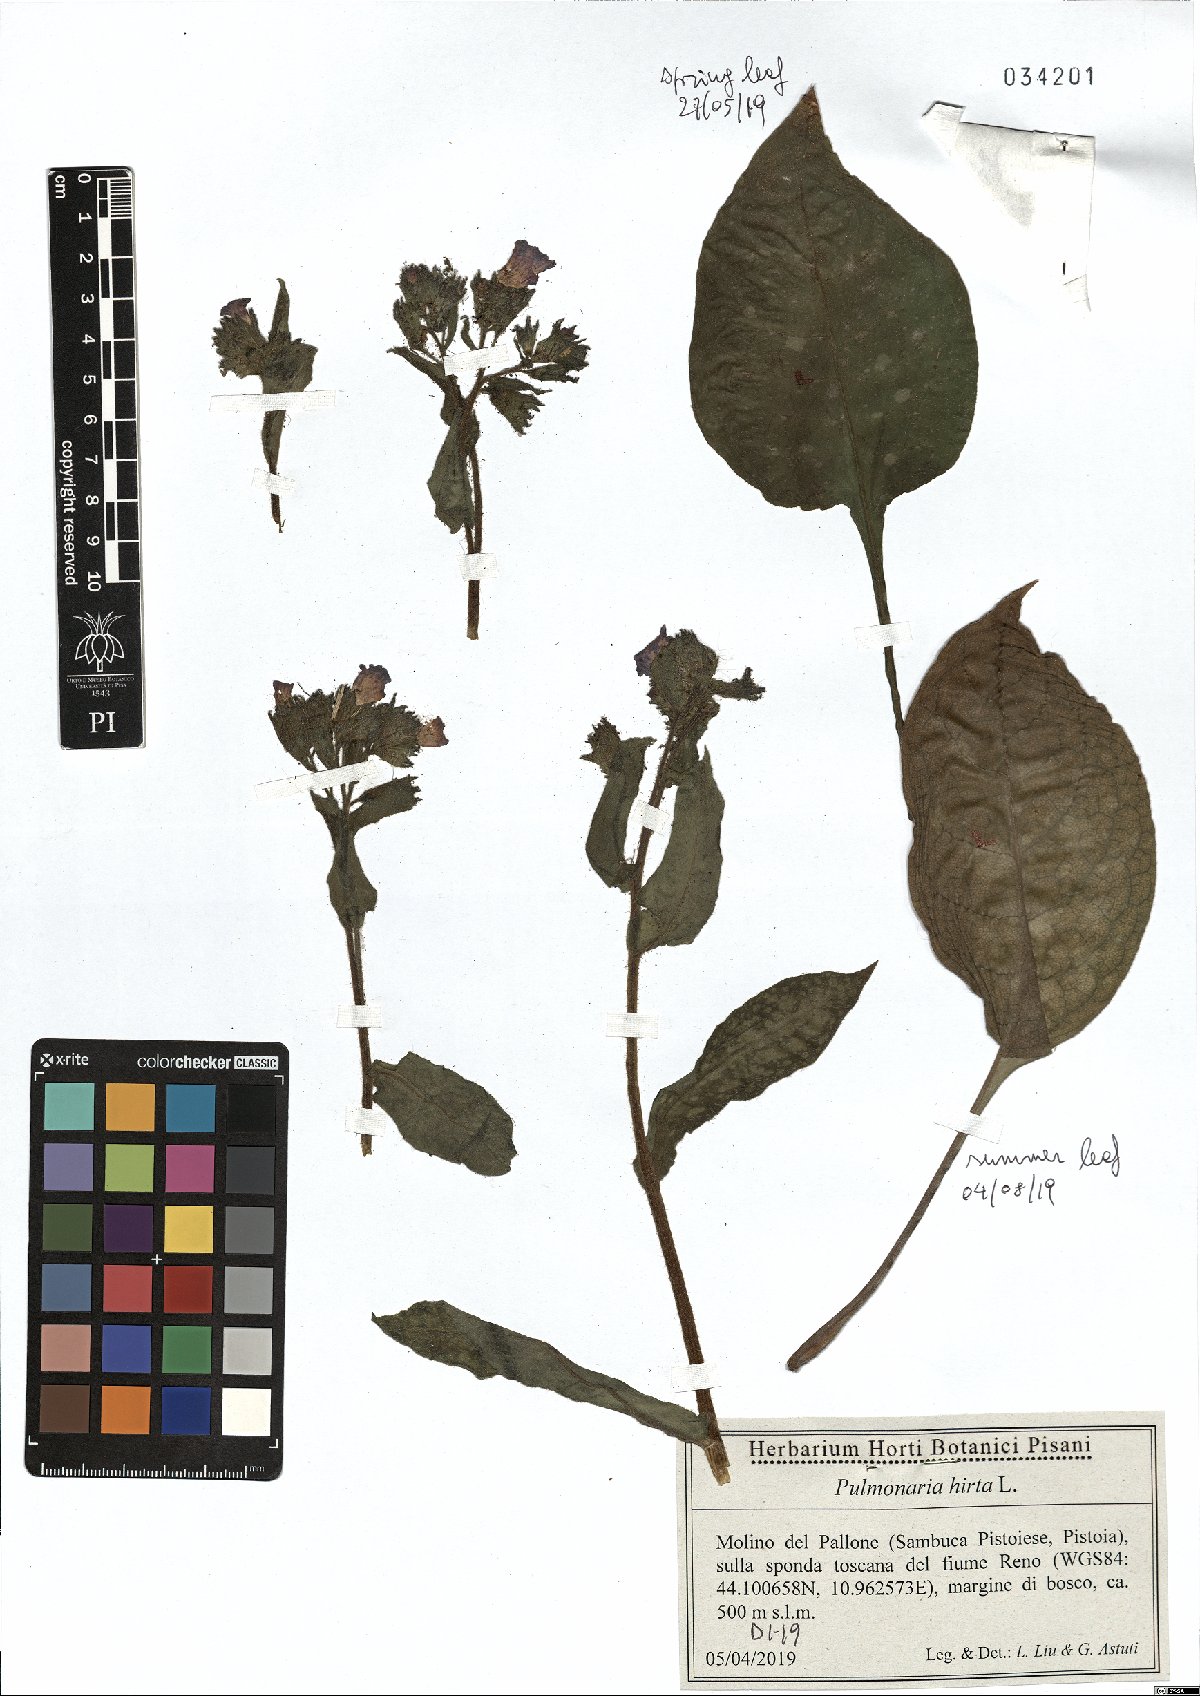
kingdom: Plantae
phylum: Tracheophyta
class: Magnoliopsida
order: Boraginales
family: Boraginaceae
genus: Pulmonaria
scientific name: Pulmonaria hirta
